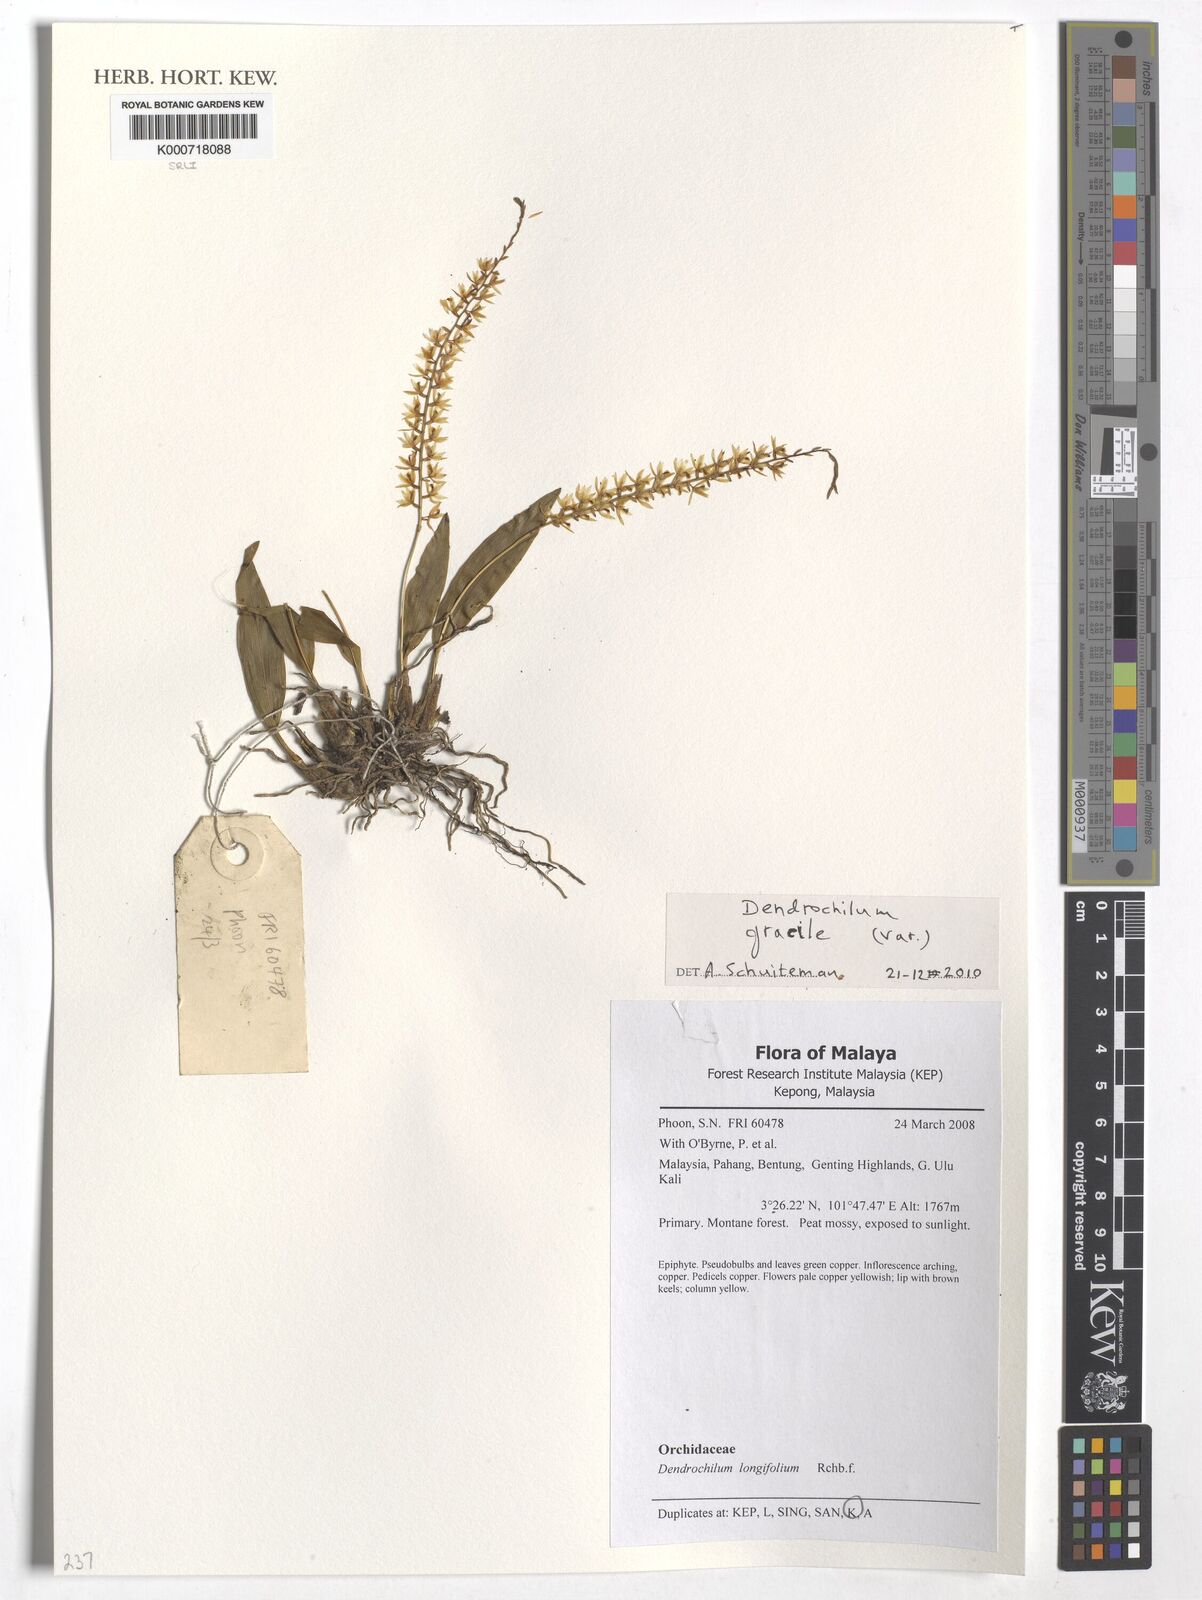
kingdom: Plantae
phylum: Tracheophyta
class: Liliopsida
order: Asparagales
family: Orchidaceae
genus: Coelogyne
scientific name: Coelogyne gracilis
